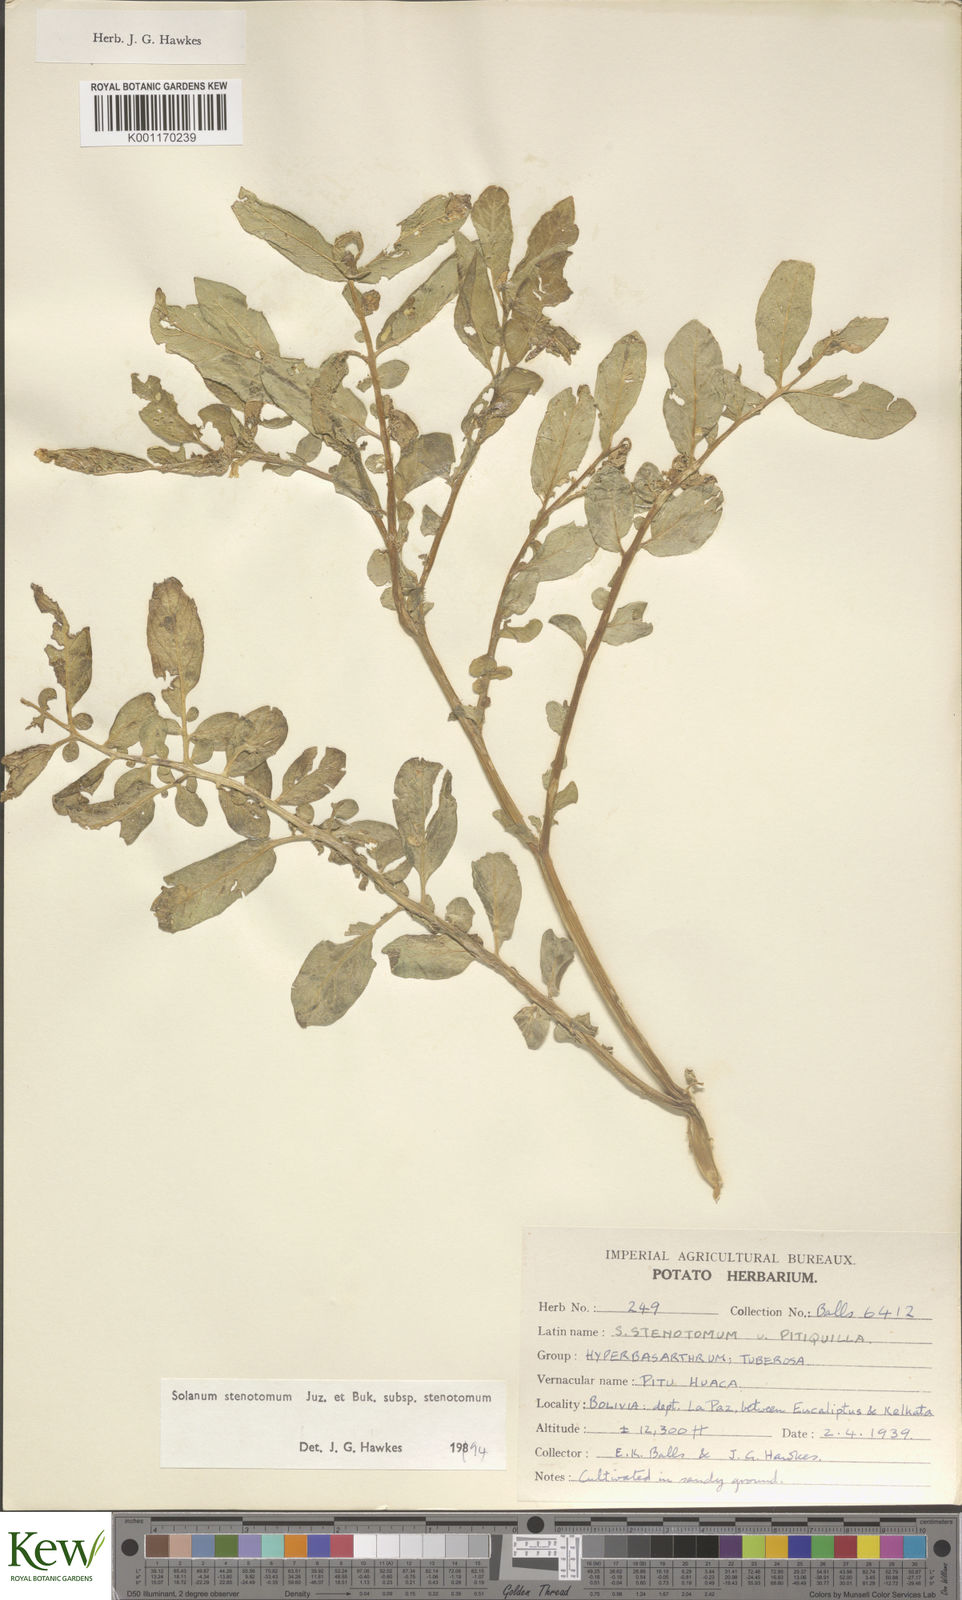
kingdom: Plantae
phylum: Tracheophyta
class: Magnoliopsida
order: Solanales
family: Solanaceae
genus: Solanum
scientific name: Solanum tuberosum
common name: Potato
